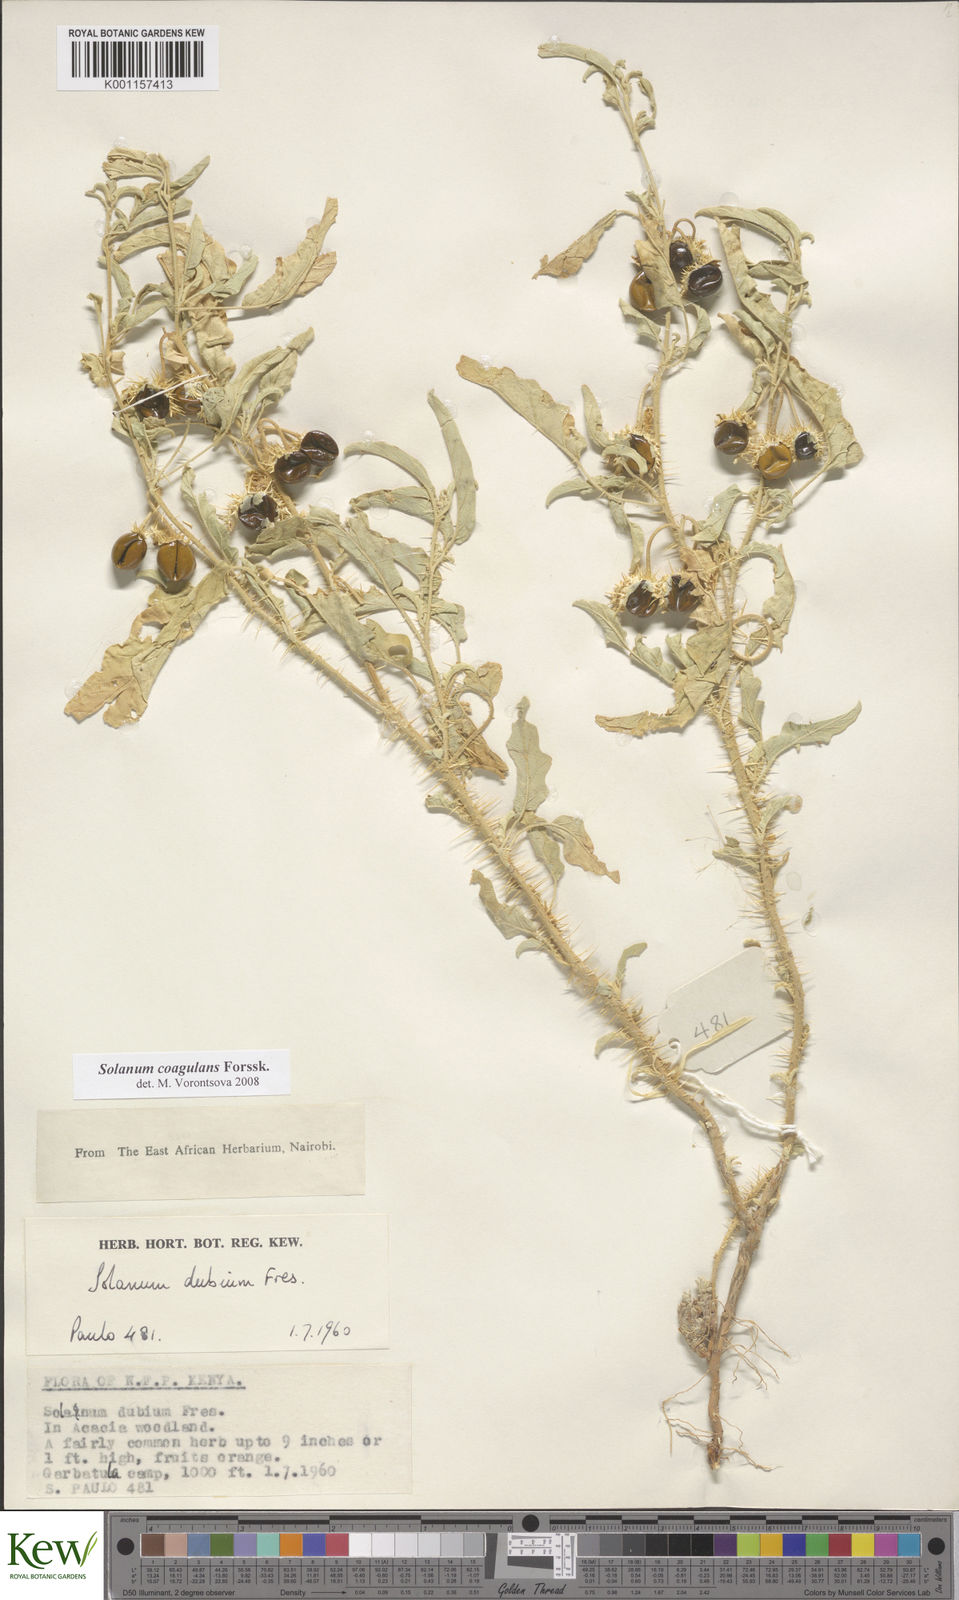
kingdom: Plantae
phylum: Tracheophyta
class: Magnoliopsida
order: Solanales
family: Solanaceae
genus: Solanum
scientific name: Solanum coagulans
